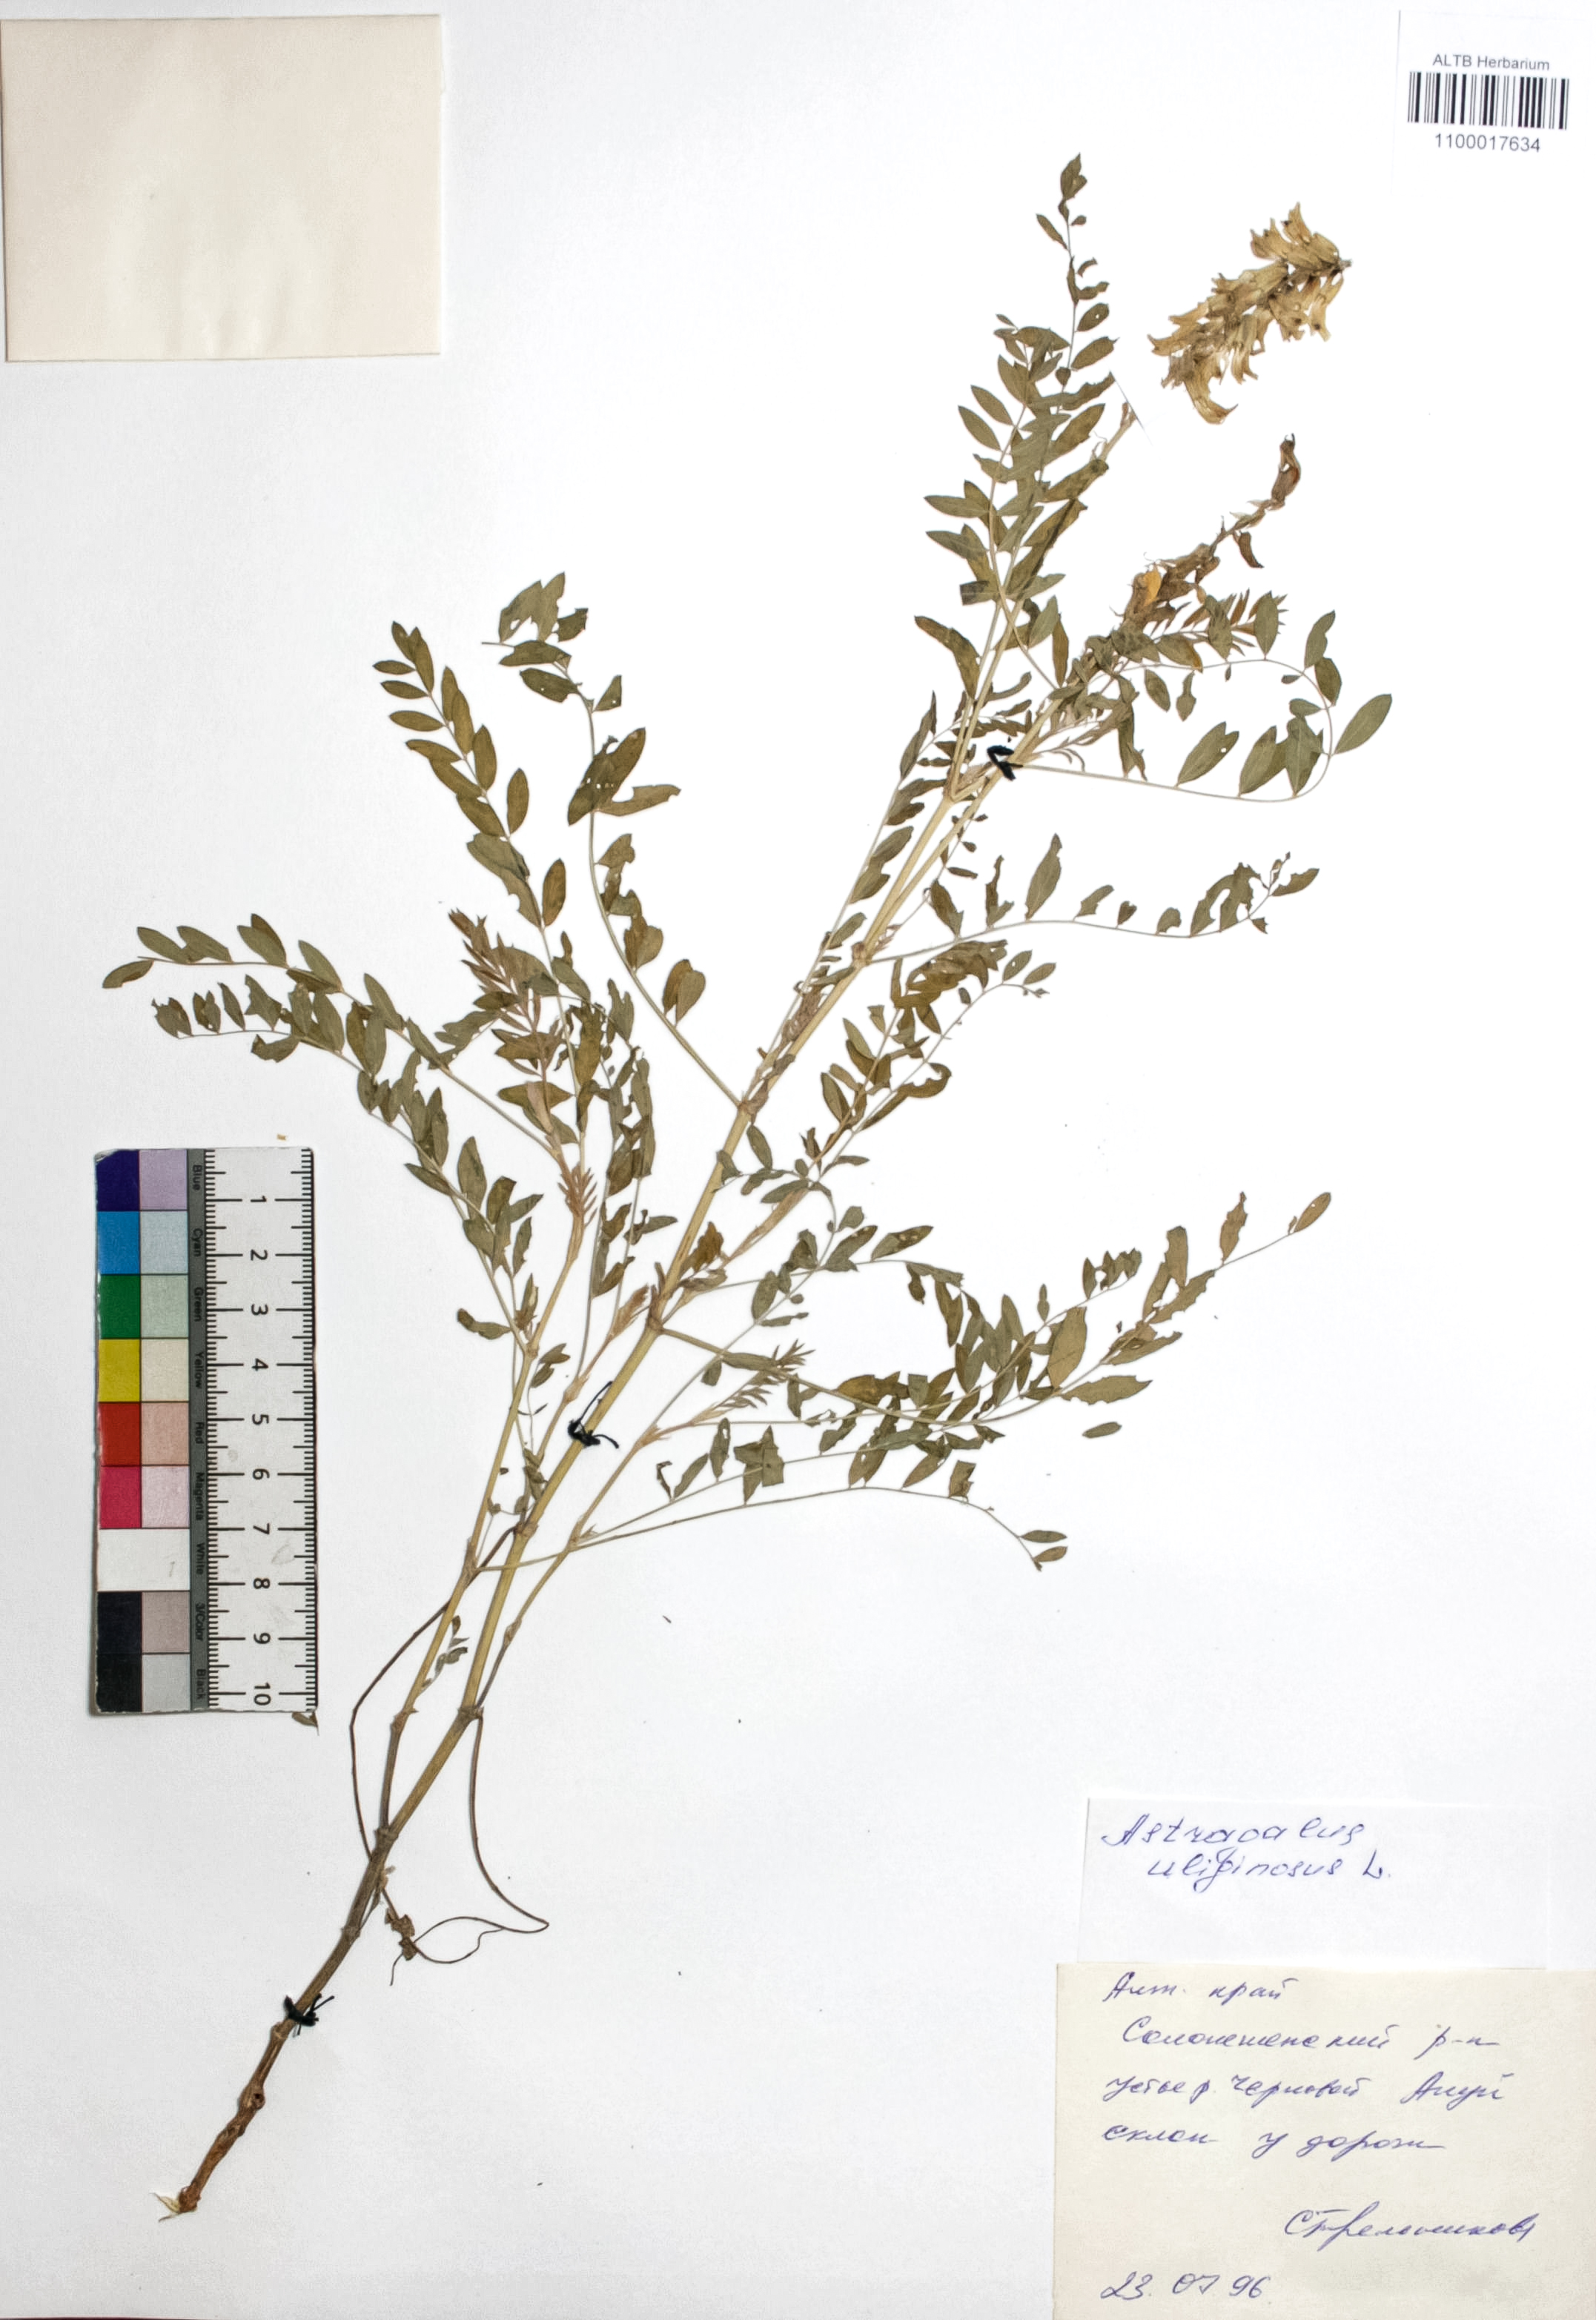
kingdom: Plantae
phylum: Tracheophyta
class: Magnoliopsida
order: Fabales
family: Fabaceae
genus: Astragalus
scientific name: Astragalus uliginosus
